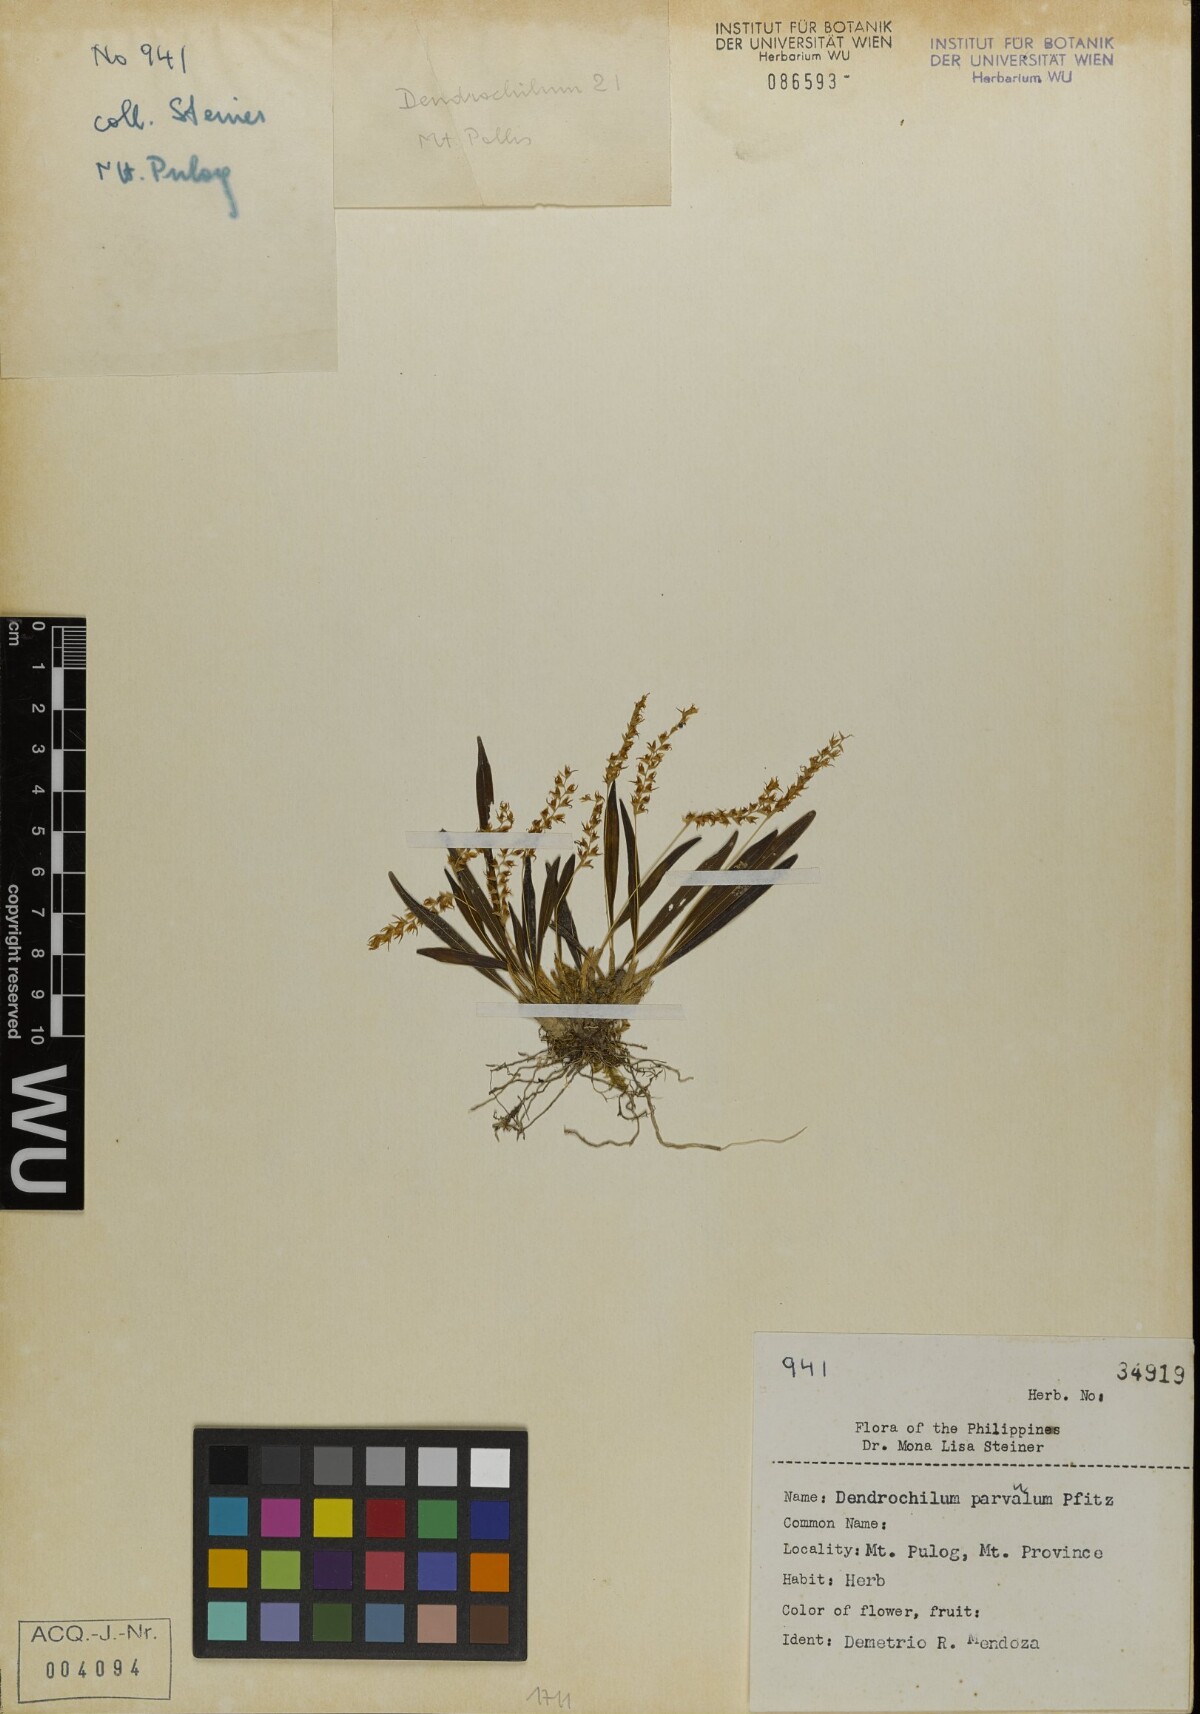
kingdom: Plantae
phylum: Tracheophyta
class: Liliopsida
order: Asparagales
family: Orchidaceae
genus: Coelogyne
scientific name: Coelogyne parvula
